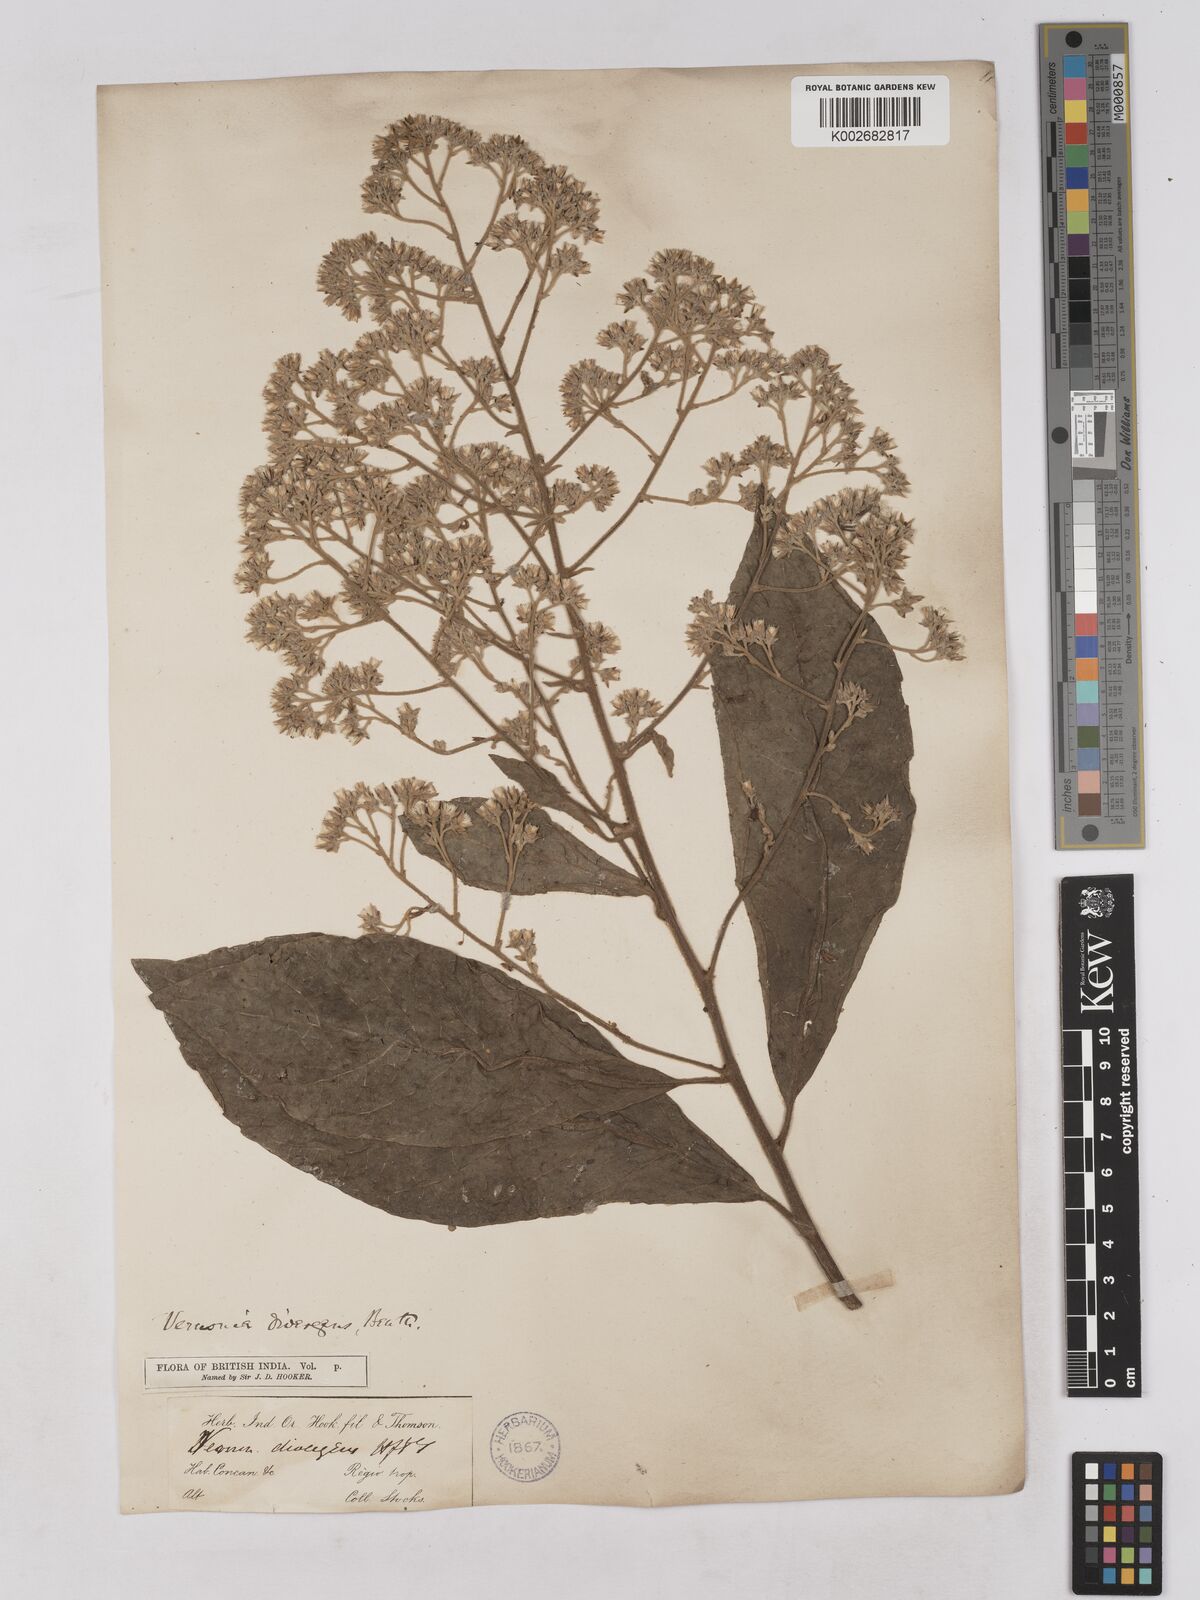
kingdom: Plantae
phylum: Tracheophyta
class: Magnoliopsida
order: Asterales
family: Asteraceae
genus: Acilepis
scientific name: Acilepis divergens
